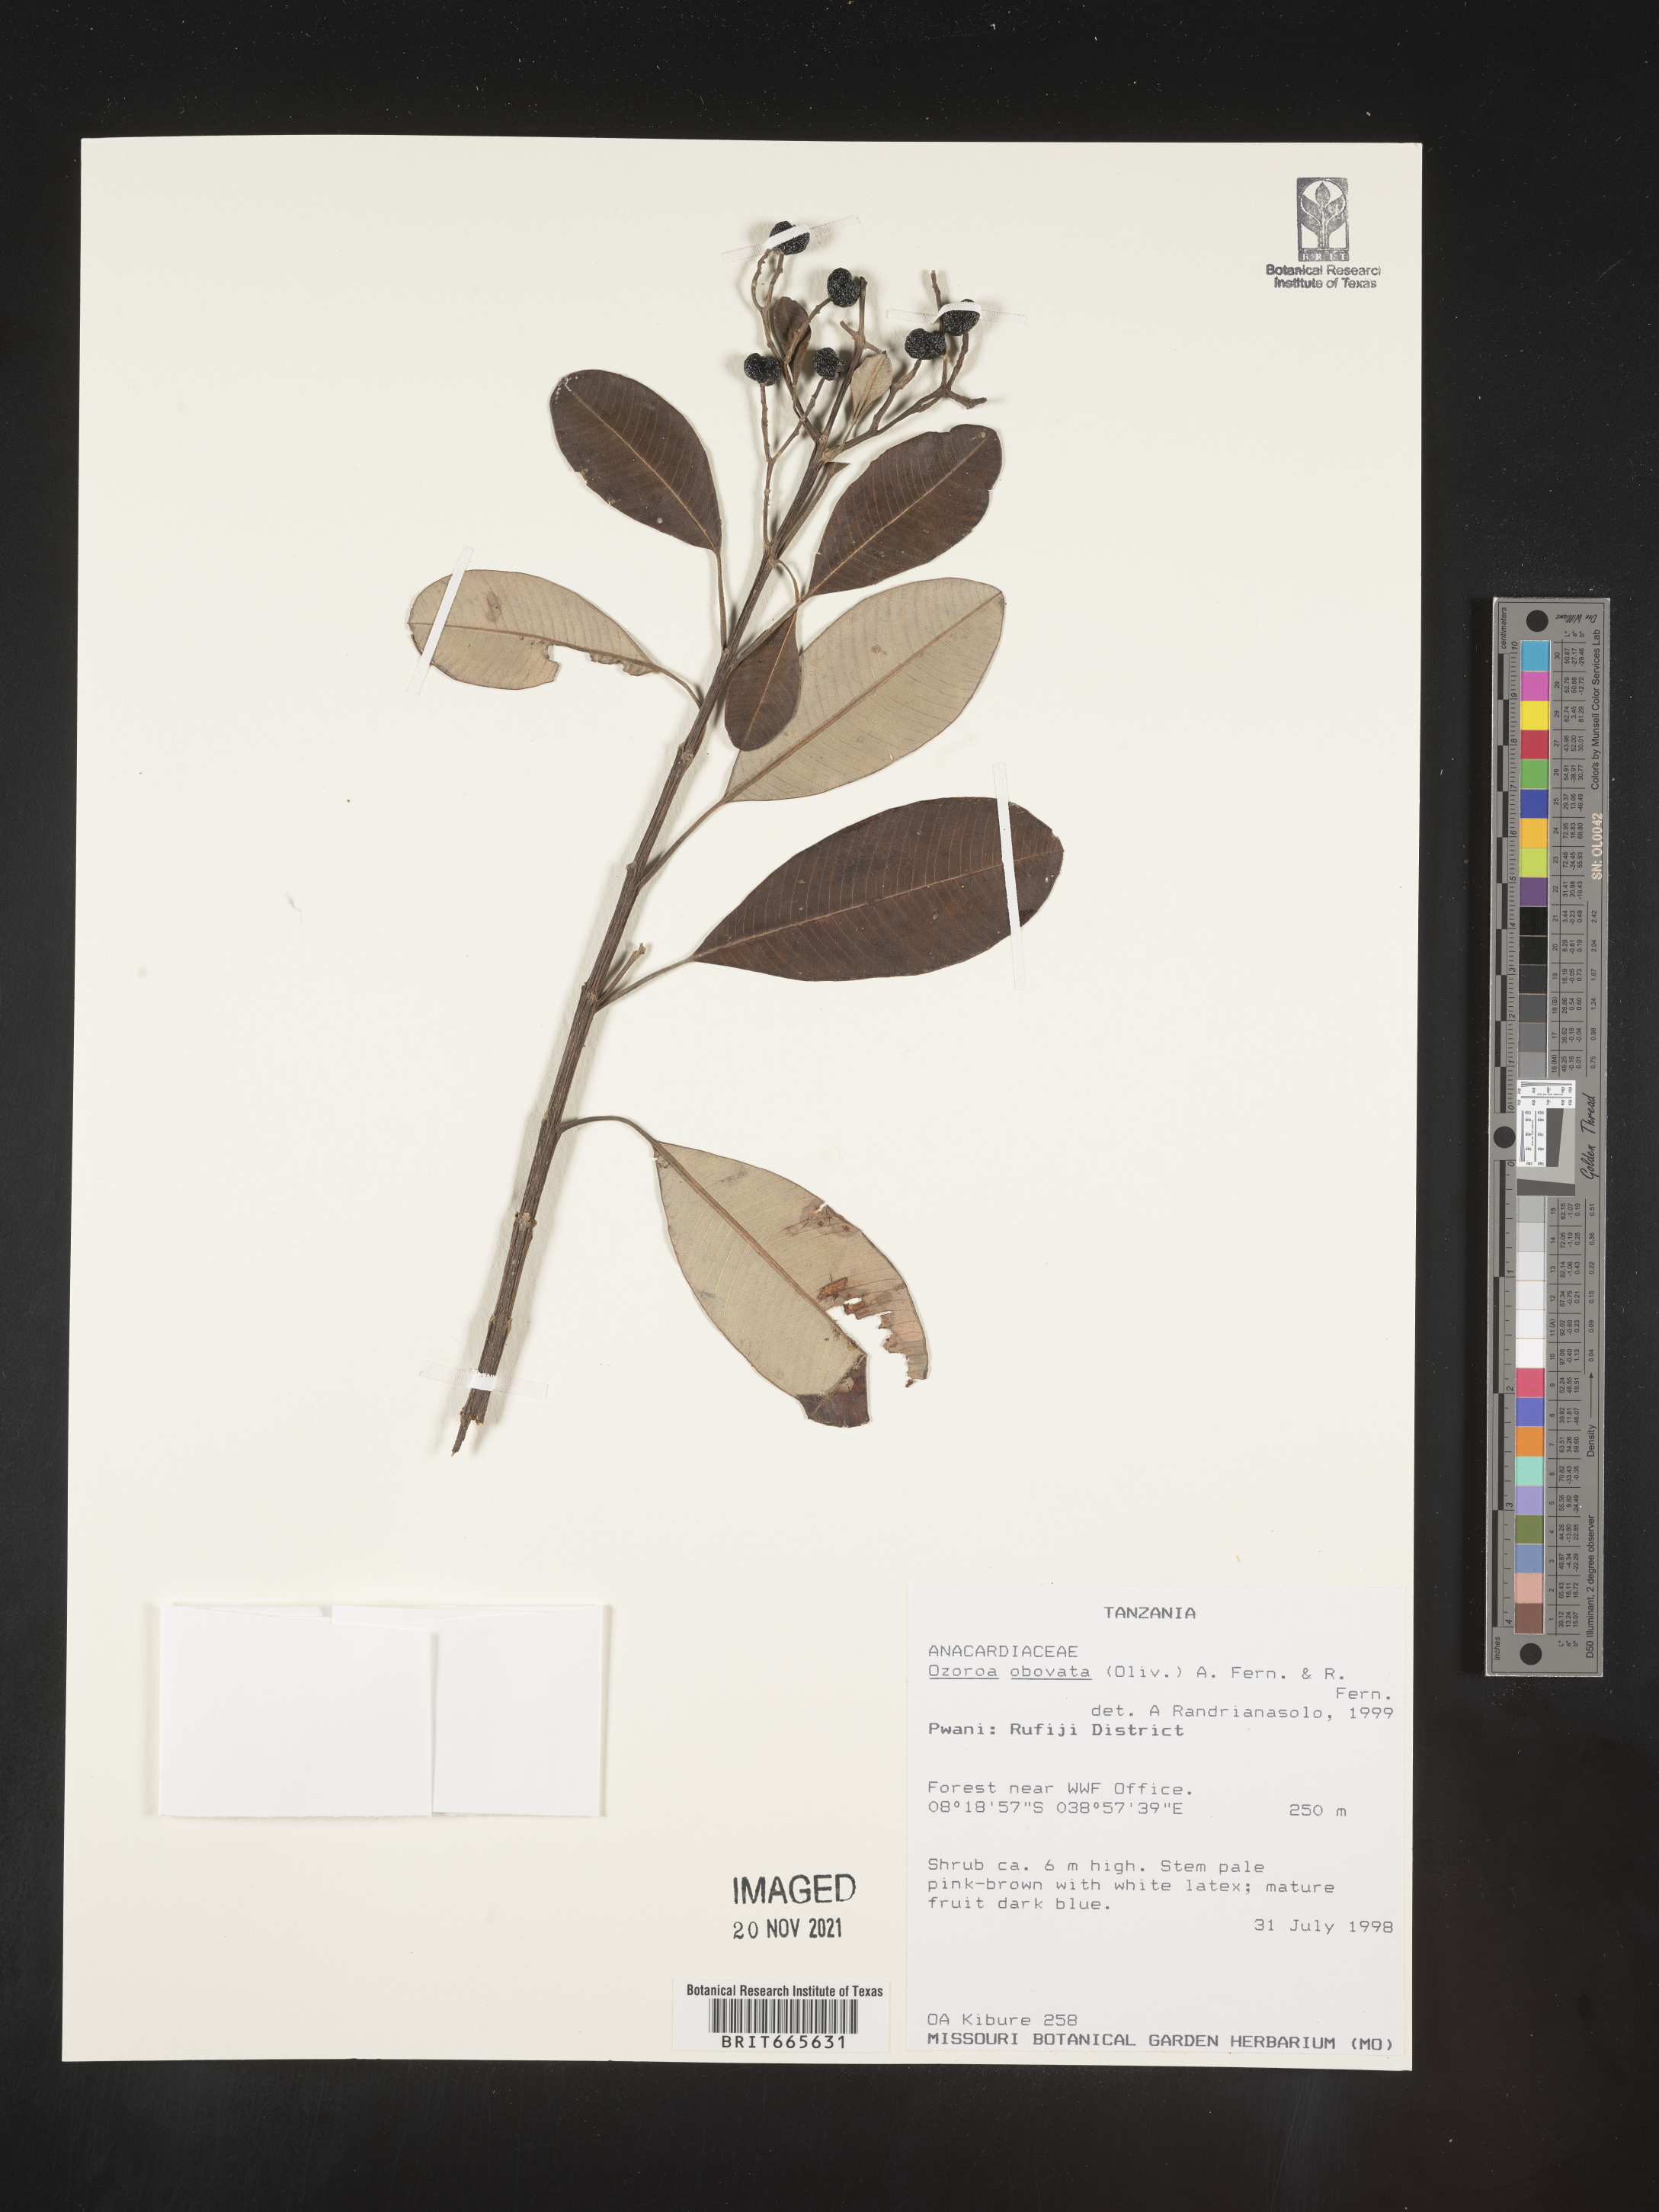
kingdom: Plantae
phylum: Tracheophyta
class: Magnoliopsida
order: Sapindales
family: Anacardiaceae
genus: Ozoroa
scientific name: Ozoroa
